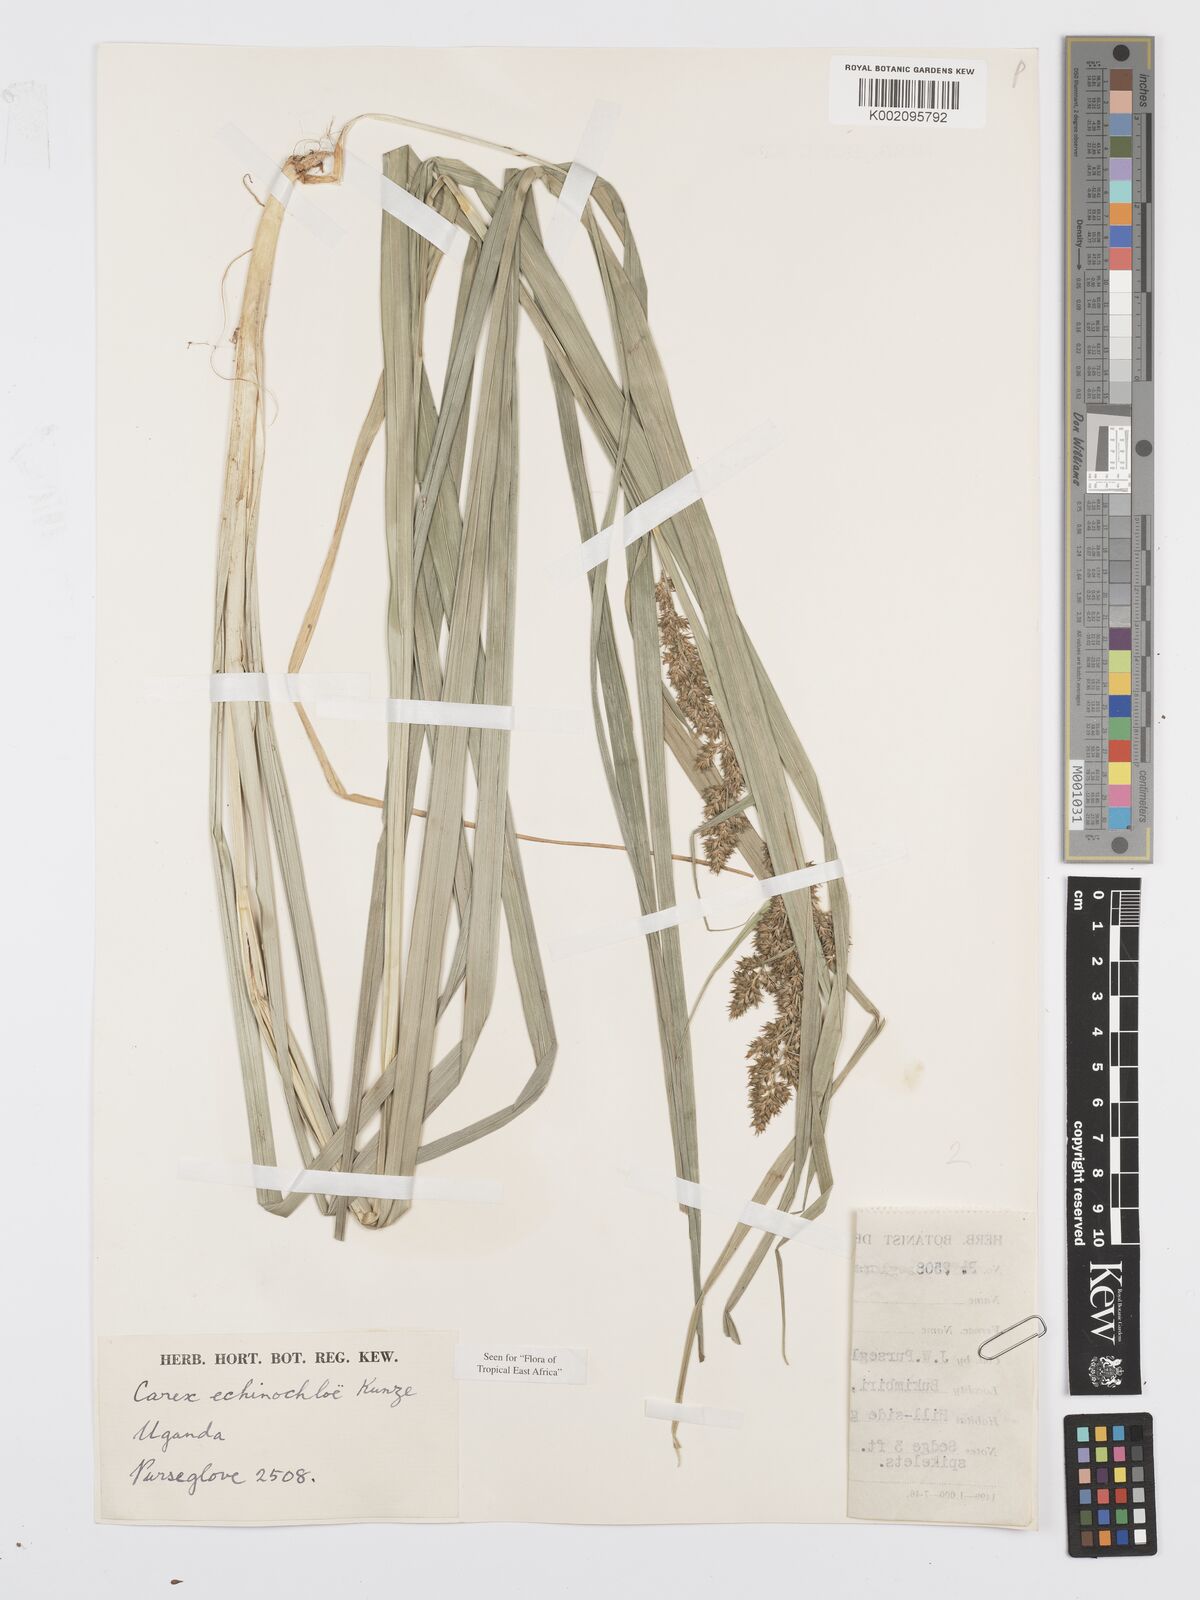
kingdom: Plantae
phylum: Tracheophyta
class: Liliopsida
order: Poales
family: Cyperaceae
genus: Carex
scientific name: Carex echinochloe
